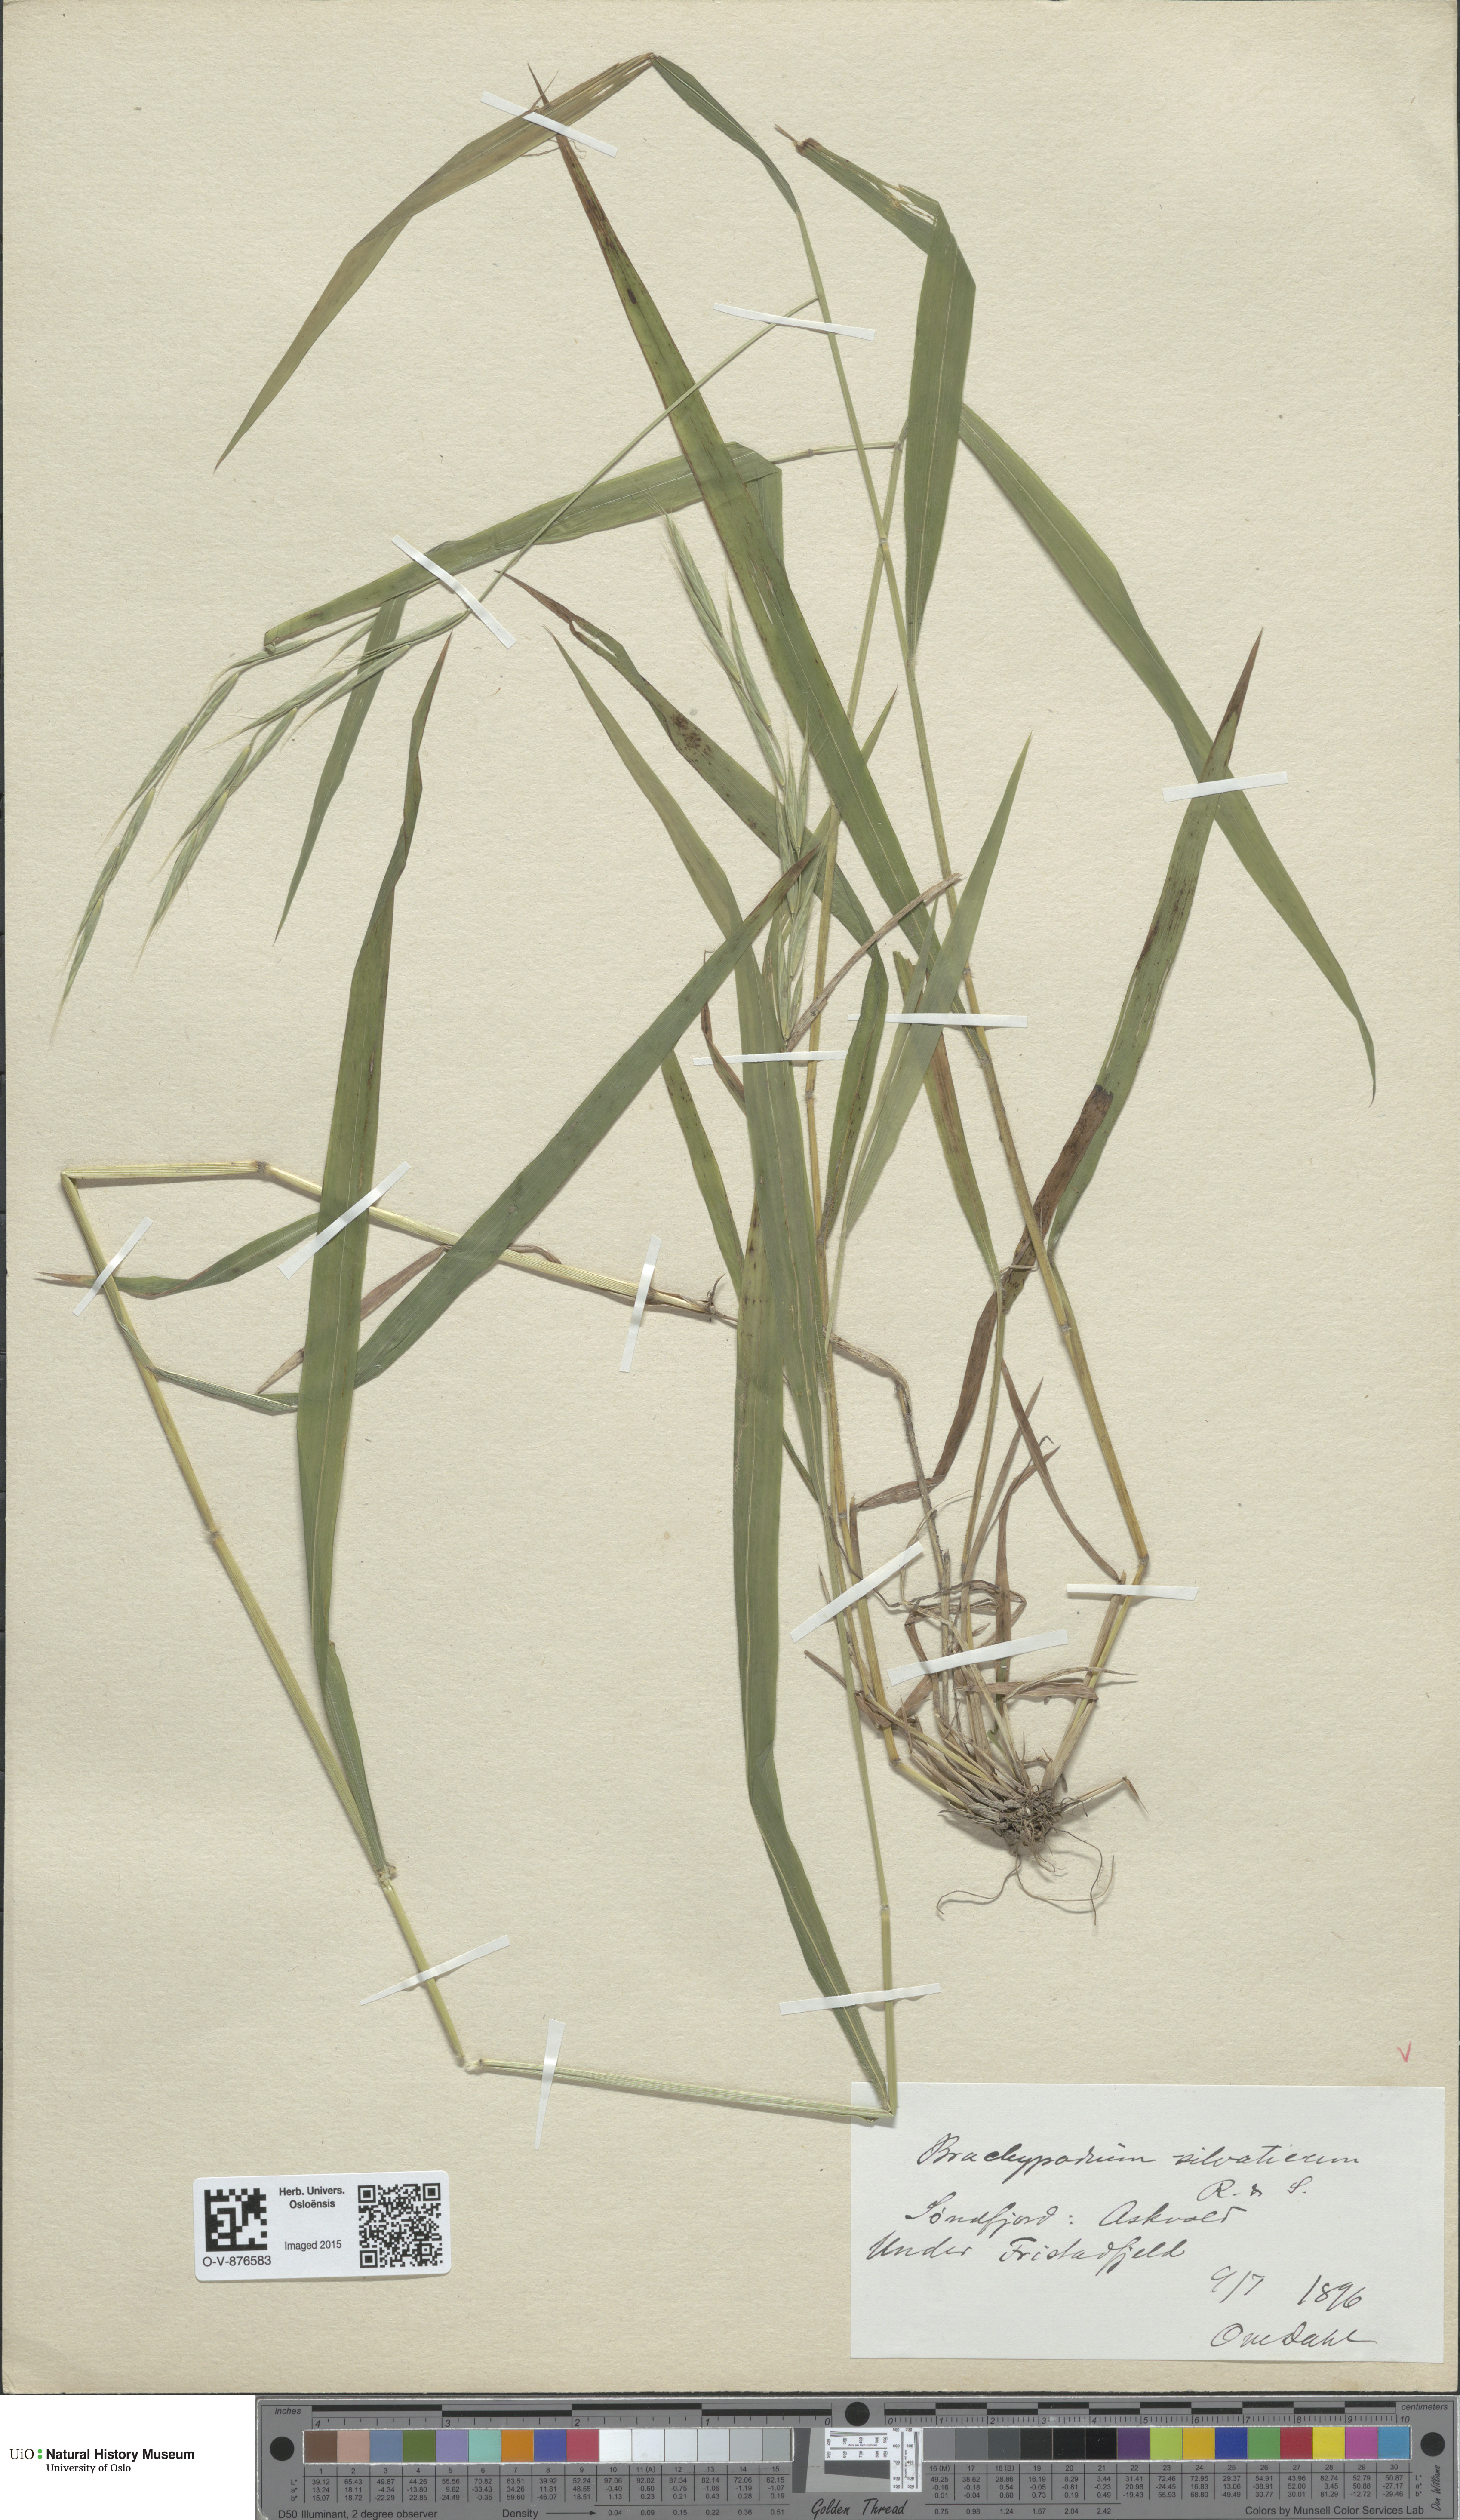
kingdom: Plantae
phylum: Tracheophyta
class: Liliopsida
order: Poales
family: Poaceae
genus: Brachypodium
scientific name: Brachypodium sylvaticum
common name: False-brome
